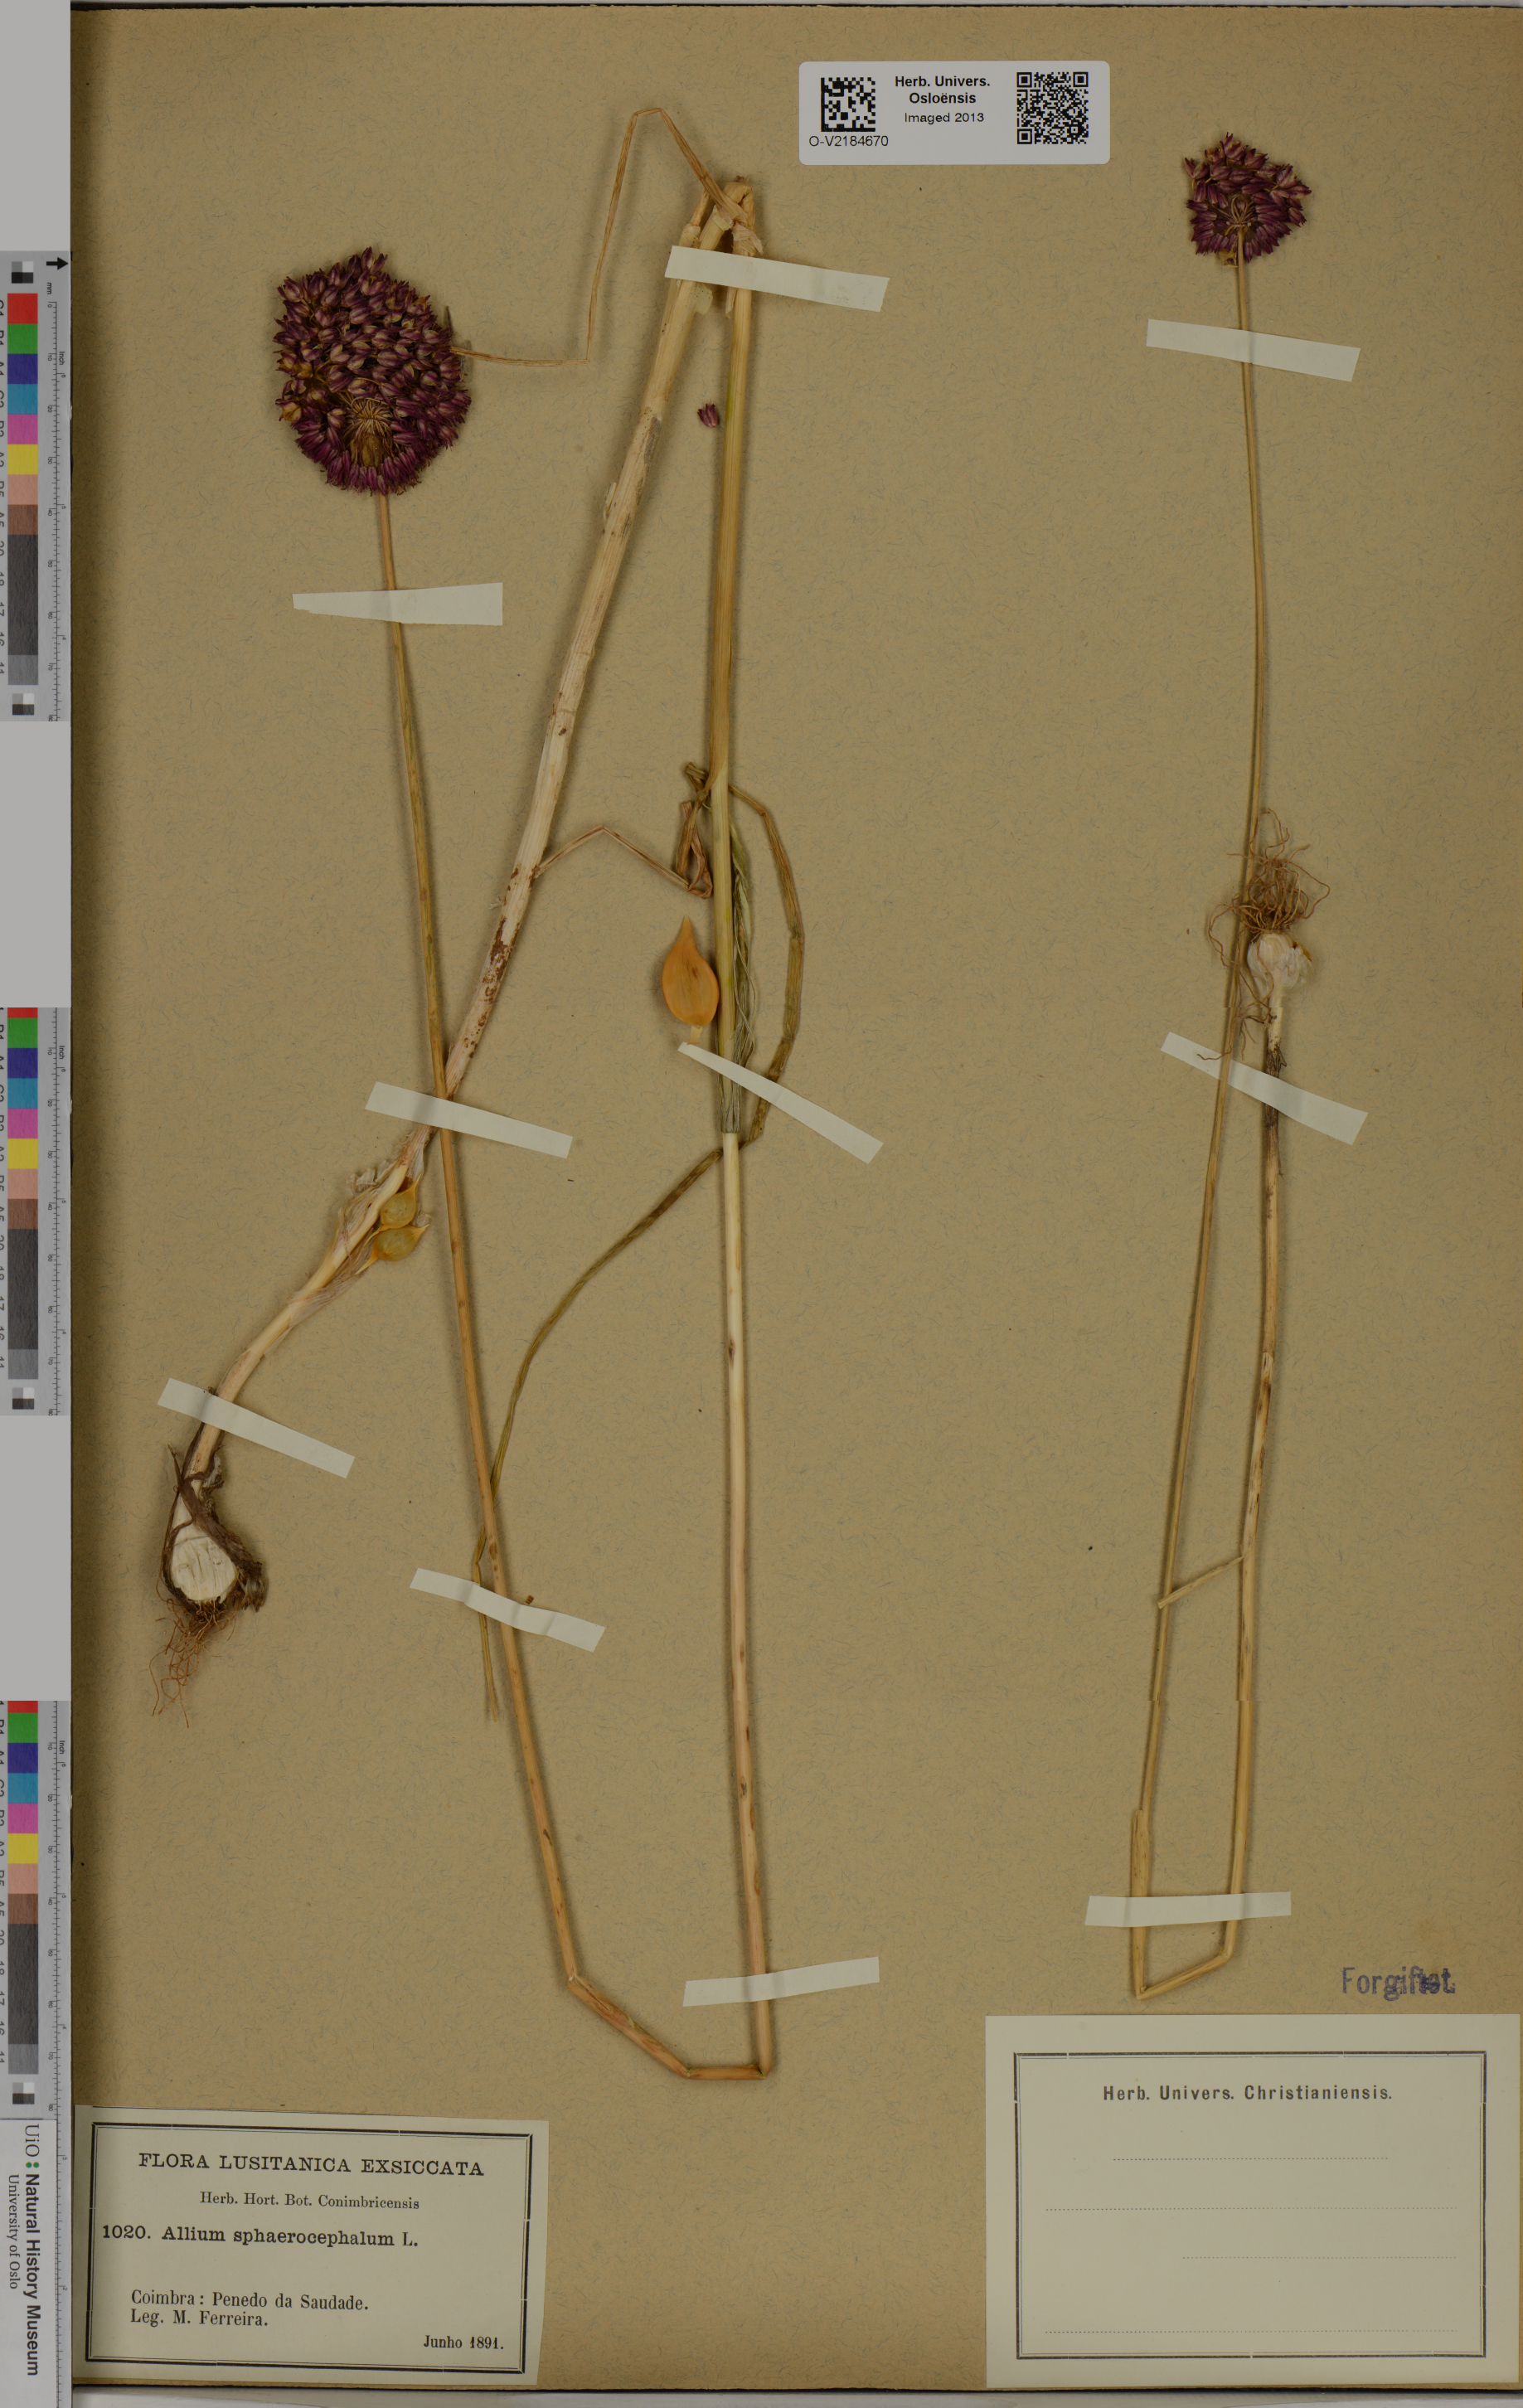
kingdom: Plantae
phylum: Tracheophyta
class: Liliopsida
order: Asparagales
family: Amaryllidaceae
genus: Allium
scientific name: Allium vineale
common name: Crow garlic
